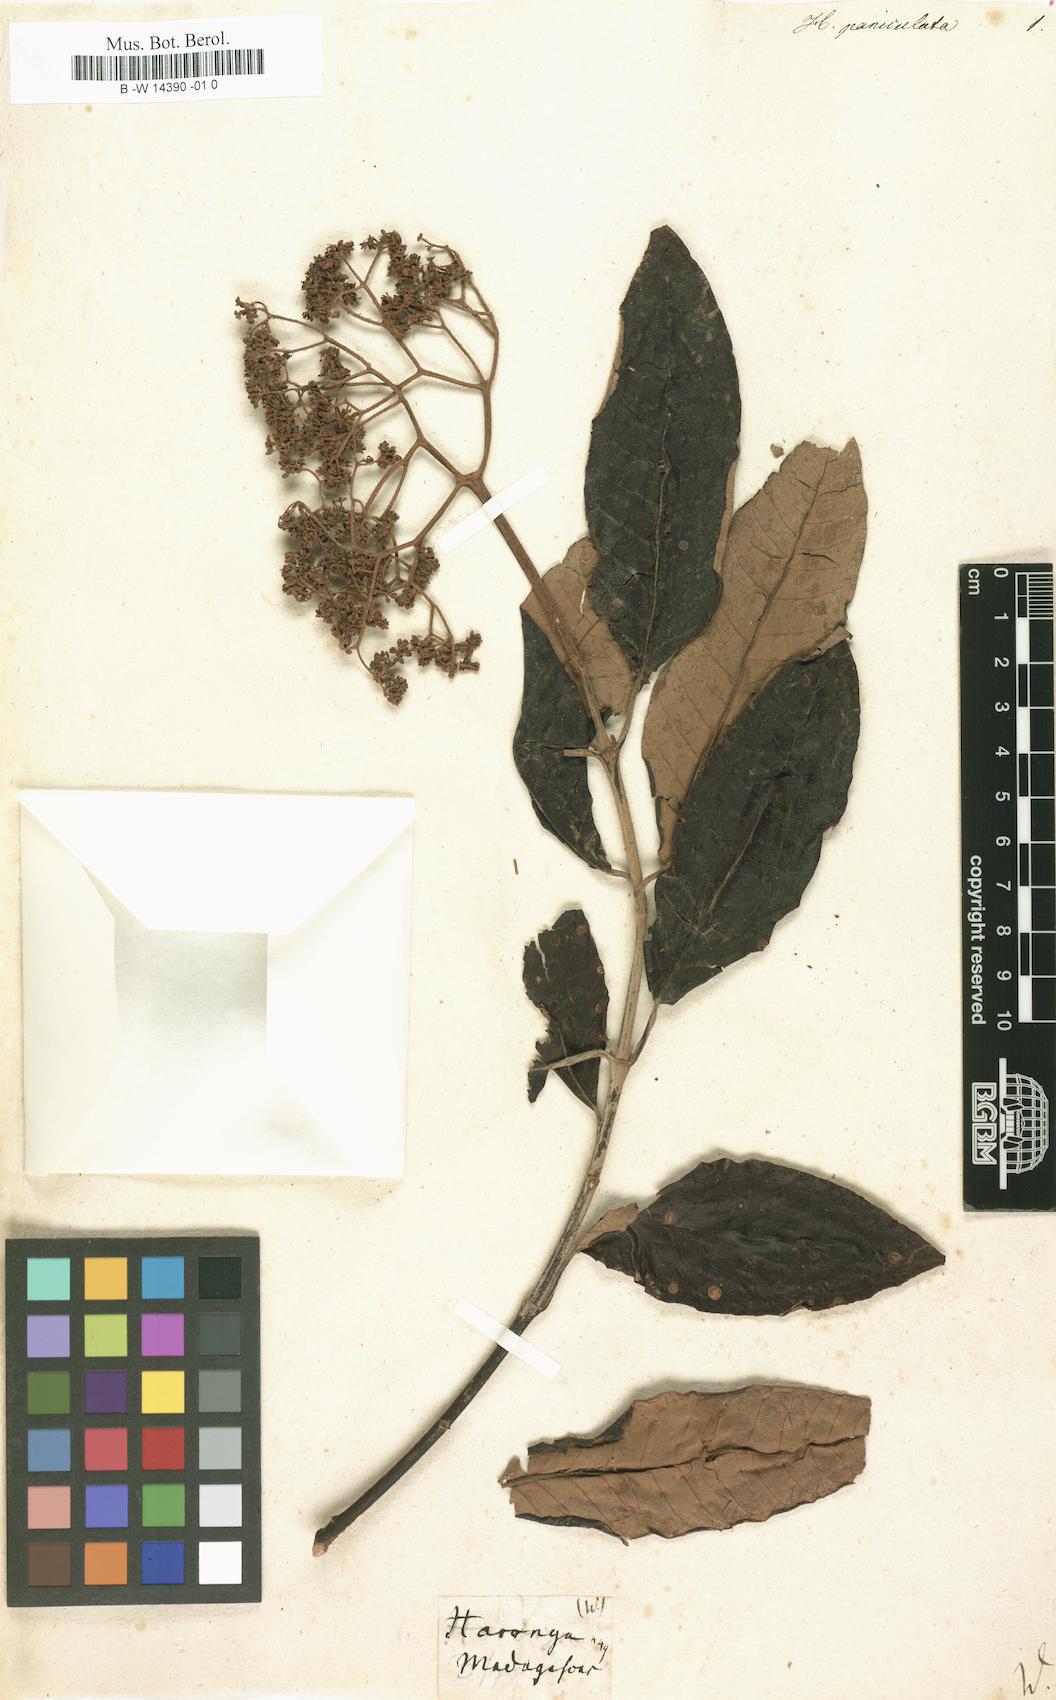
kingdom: Plantae
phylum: Tracheophyta
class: Magnoliopsida
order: Malpighiales
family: Hypericaceae
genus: Harungana
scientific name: Harungana madagascariensis
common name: Orange milktree
